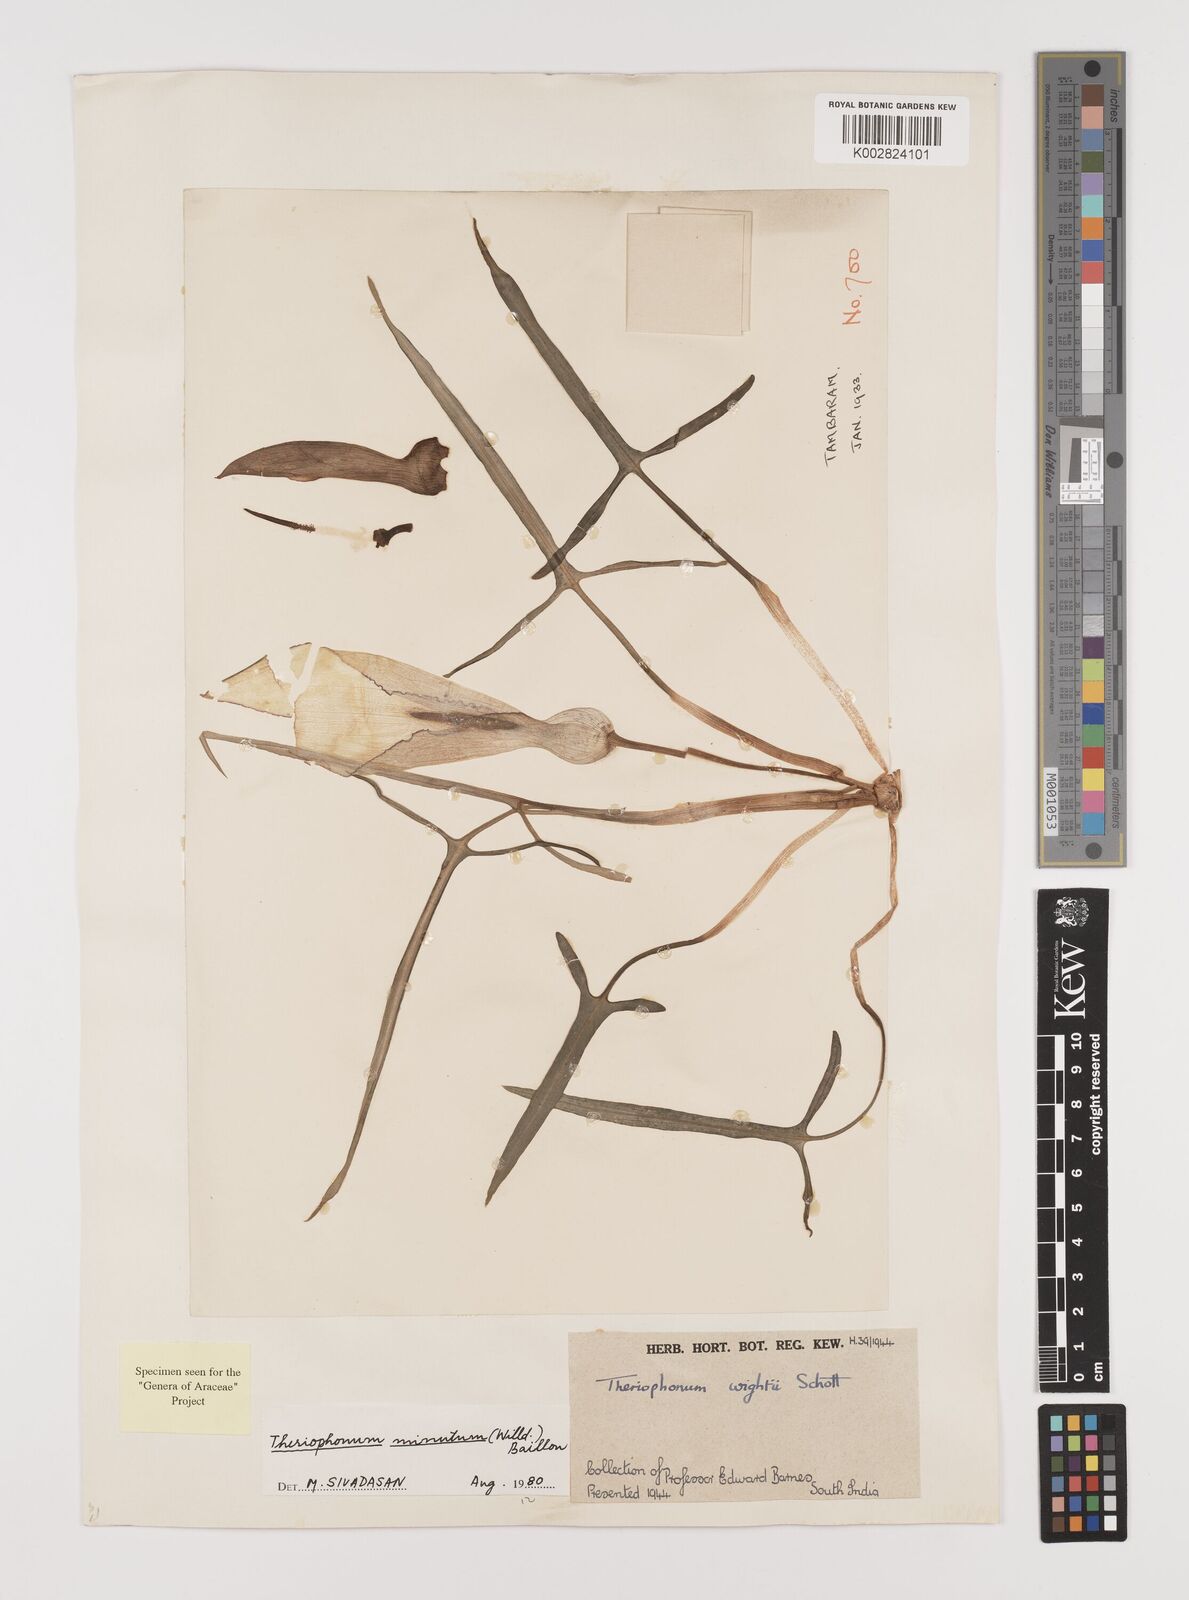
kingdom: Plantae
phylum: Tracheophyta
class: Liliopsida
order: Alismatales
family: Araceae
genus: Theriophonum
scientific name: Theriophonum minutum
